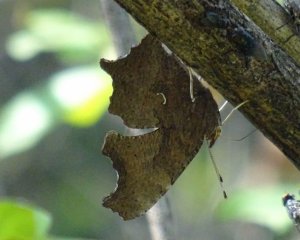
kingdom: Animalia
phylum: Arthropoda
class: Insecta
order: Lepidoptera
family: Nymphalidae
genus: Polygonia
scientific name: Polygonia comma
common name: Eastern Comma
